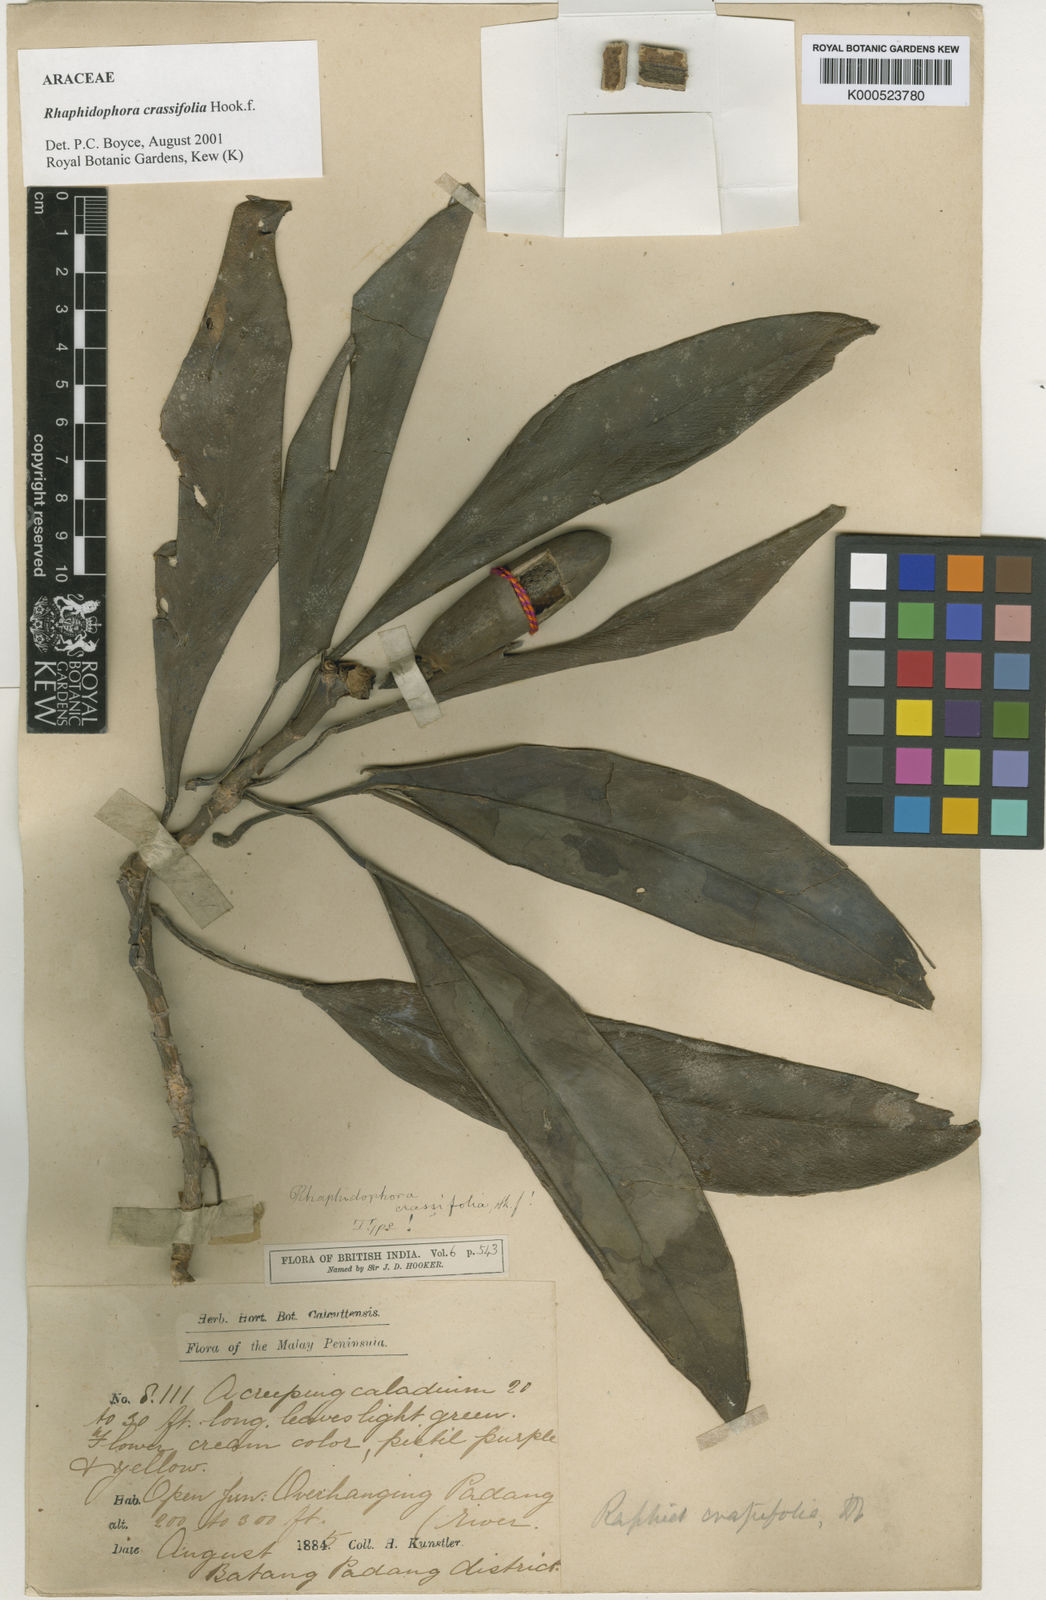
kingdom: Plantae
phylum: Tracheophyta
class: Liliopsida
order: Alismatales
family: Araceae
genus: Rhaphidophora
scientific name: Rhaphidophora crassifolia
